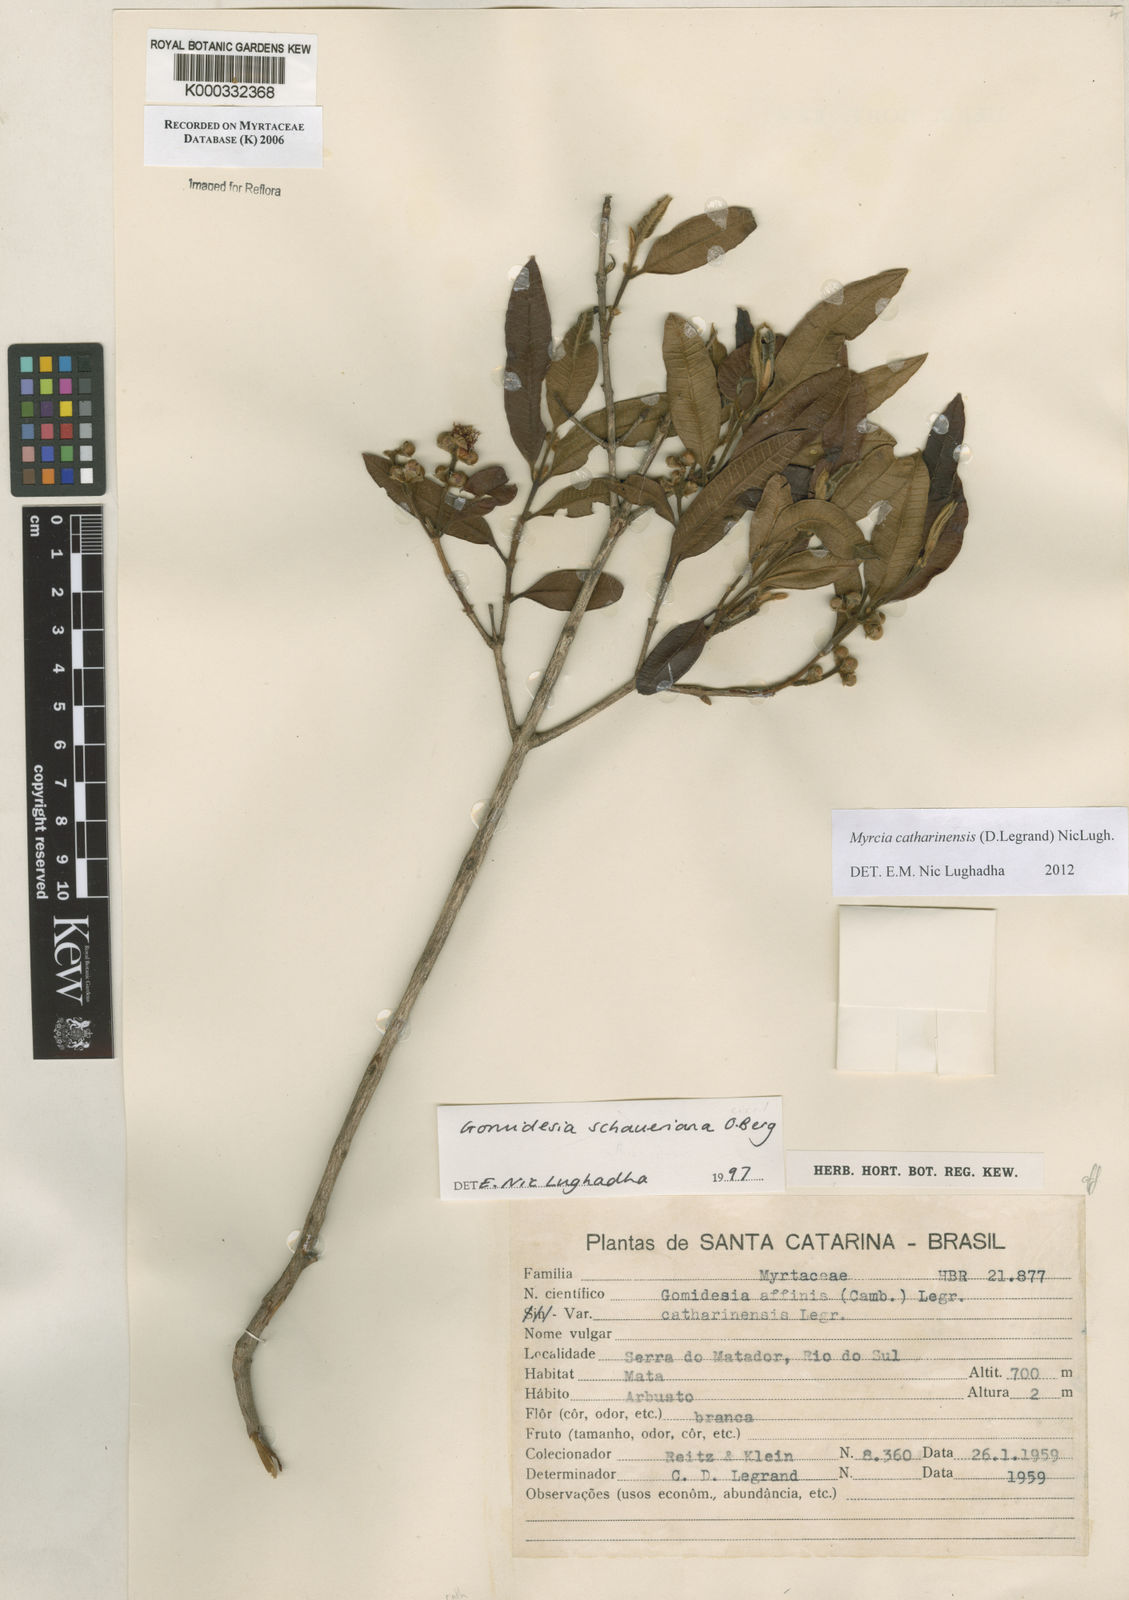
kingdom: Plantae
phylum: Tracheophyta
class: Magnoliopsida
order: Myrtales
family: Myrtaceae
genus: Myrcia
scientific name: Myrcia catharinensis
